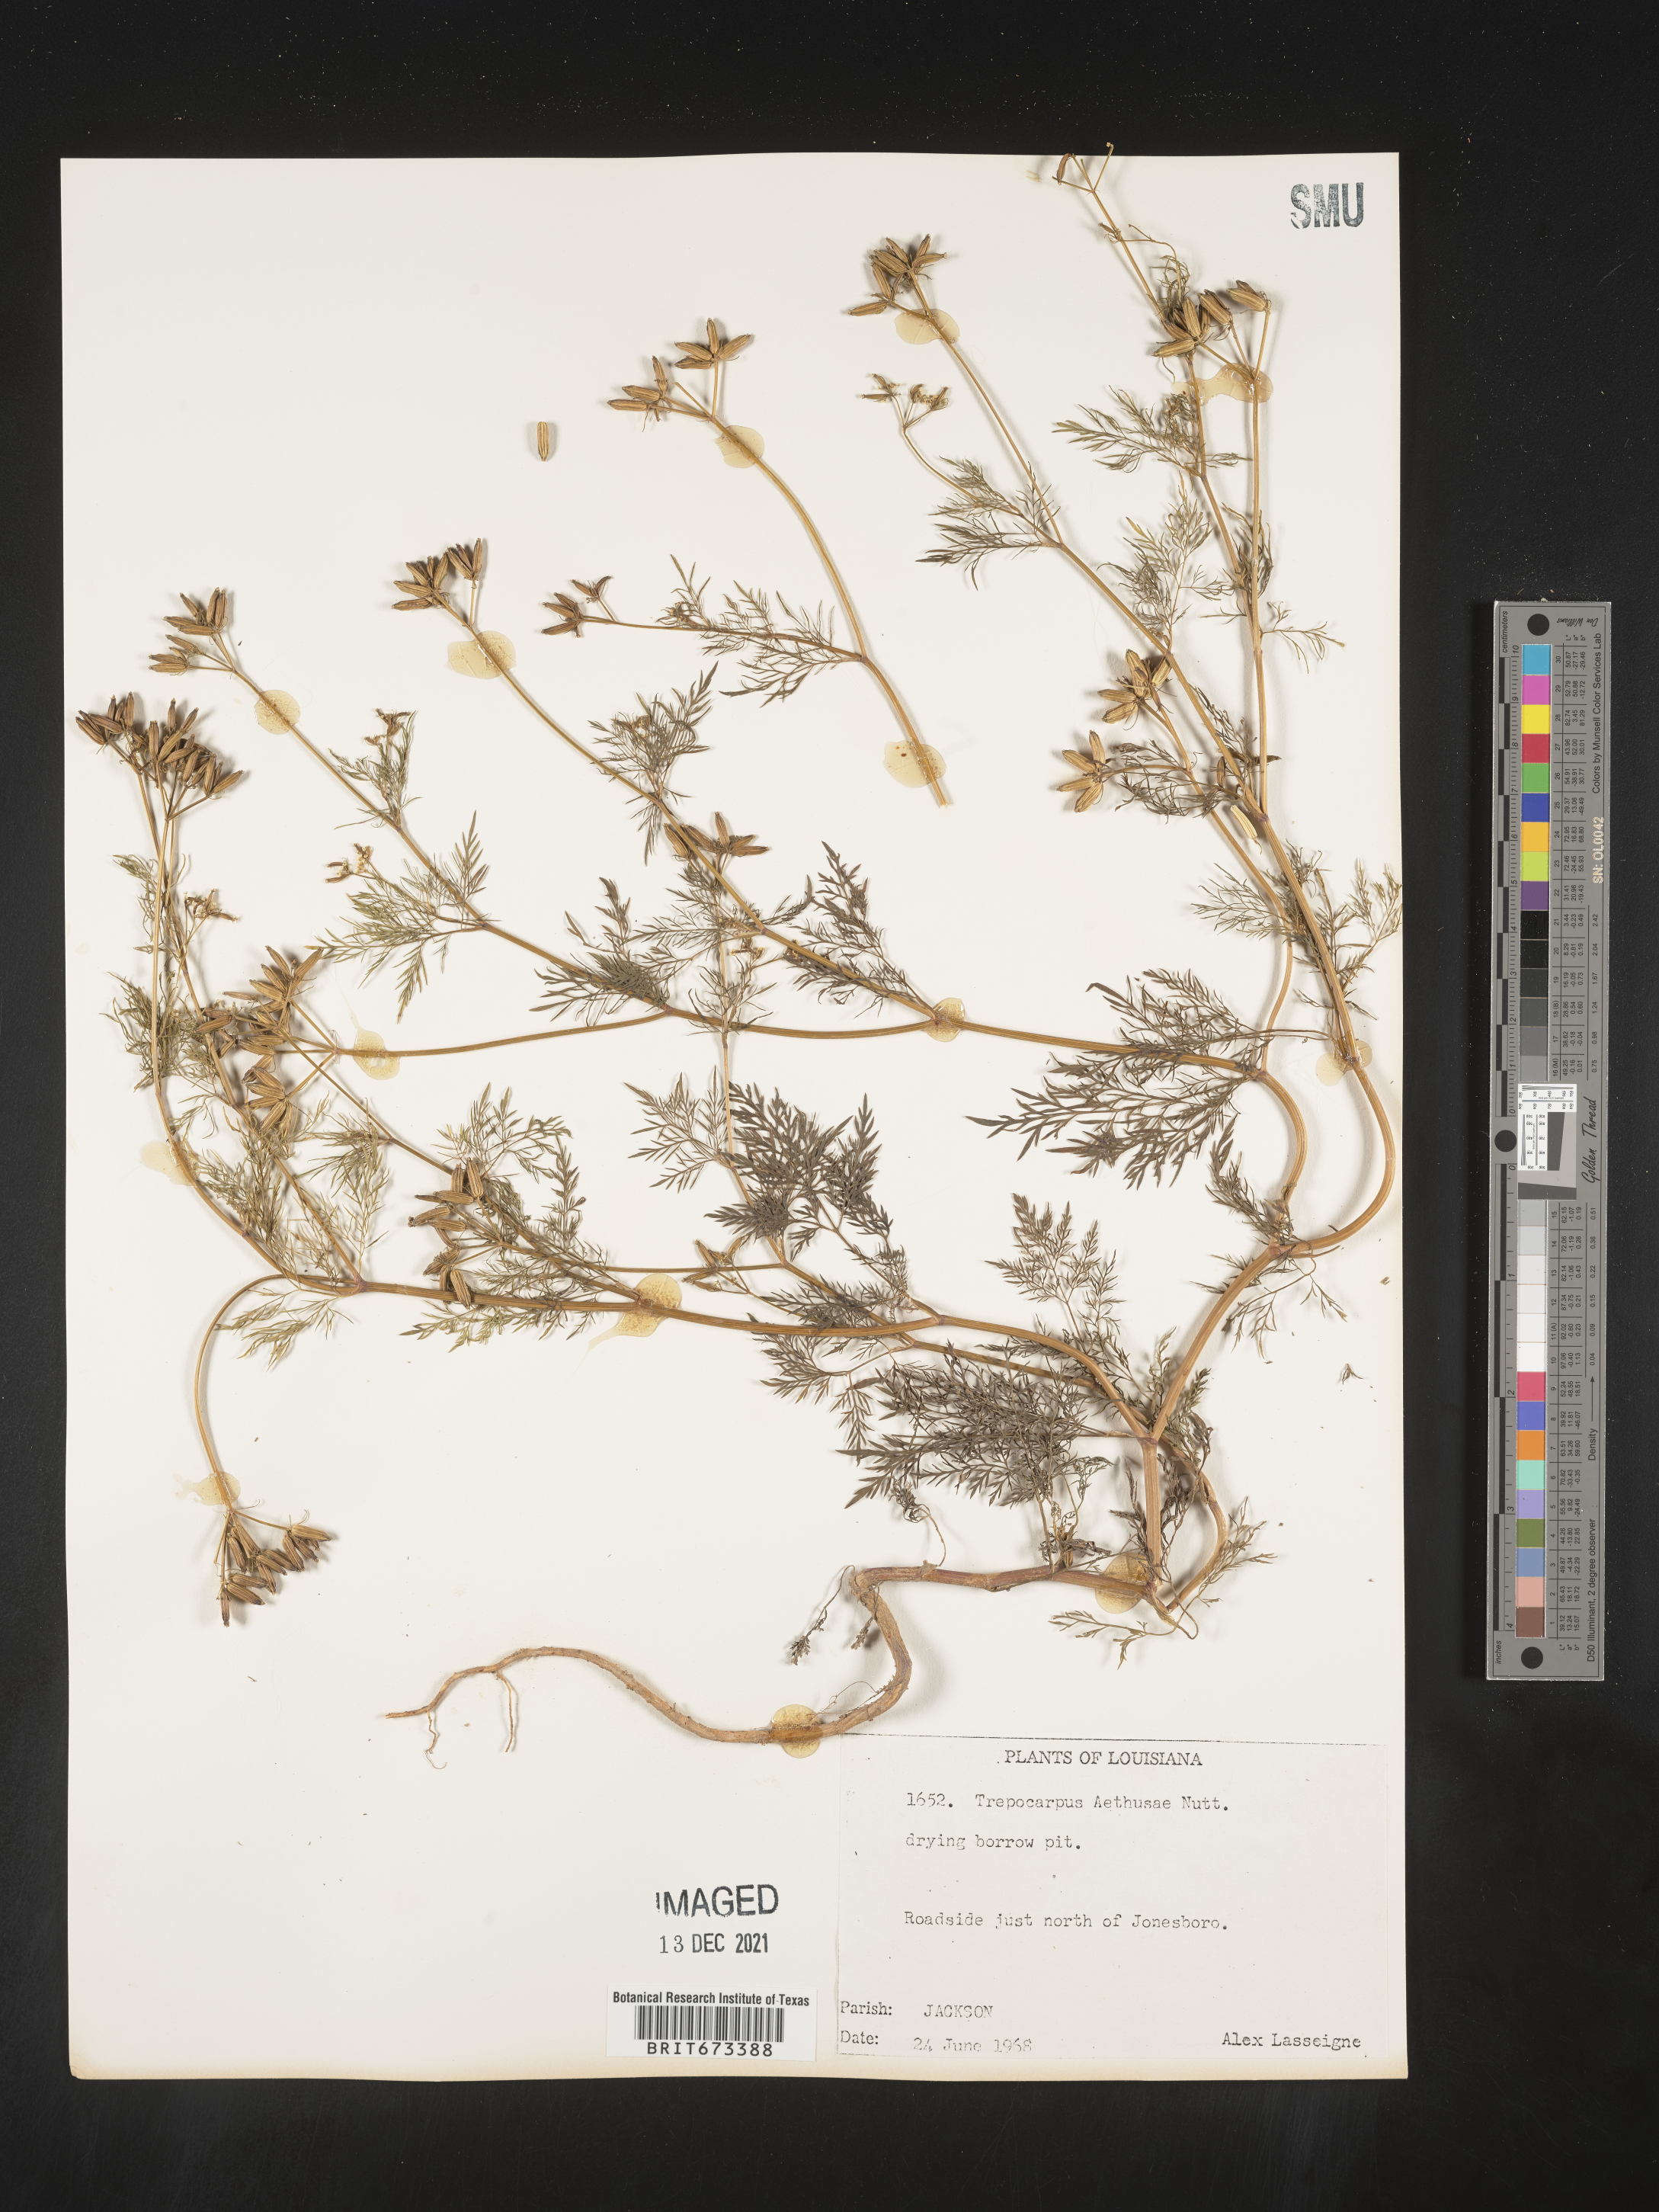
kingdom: Plantae
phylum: Tracheophyta
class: Magnoliopsida
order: Apiales
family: Apiaceae
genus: Trepocarpus
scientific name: Trepocarpus aethusae
